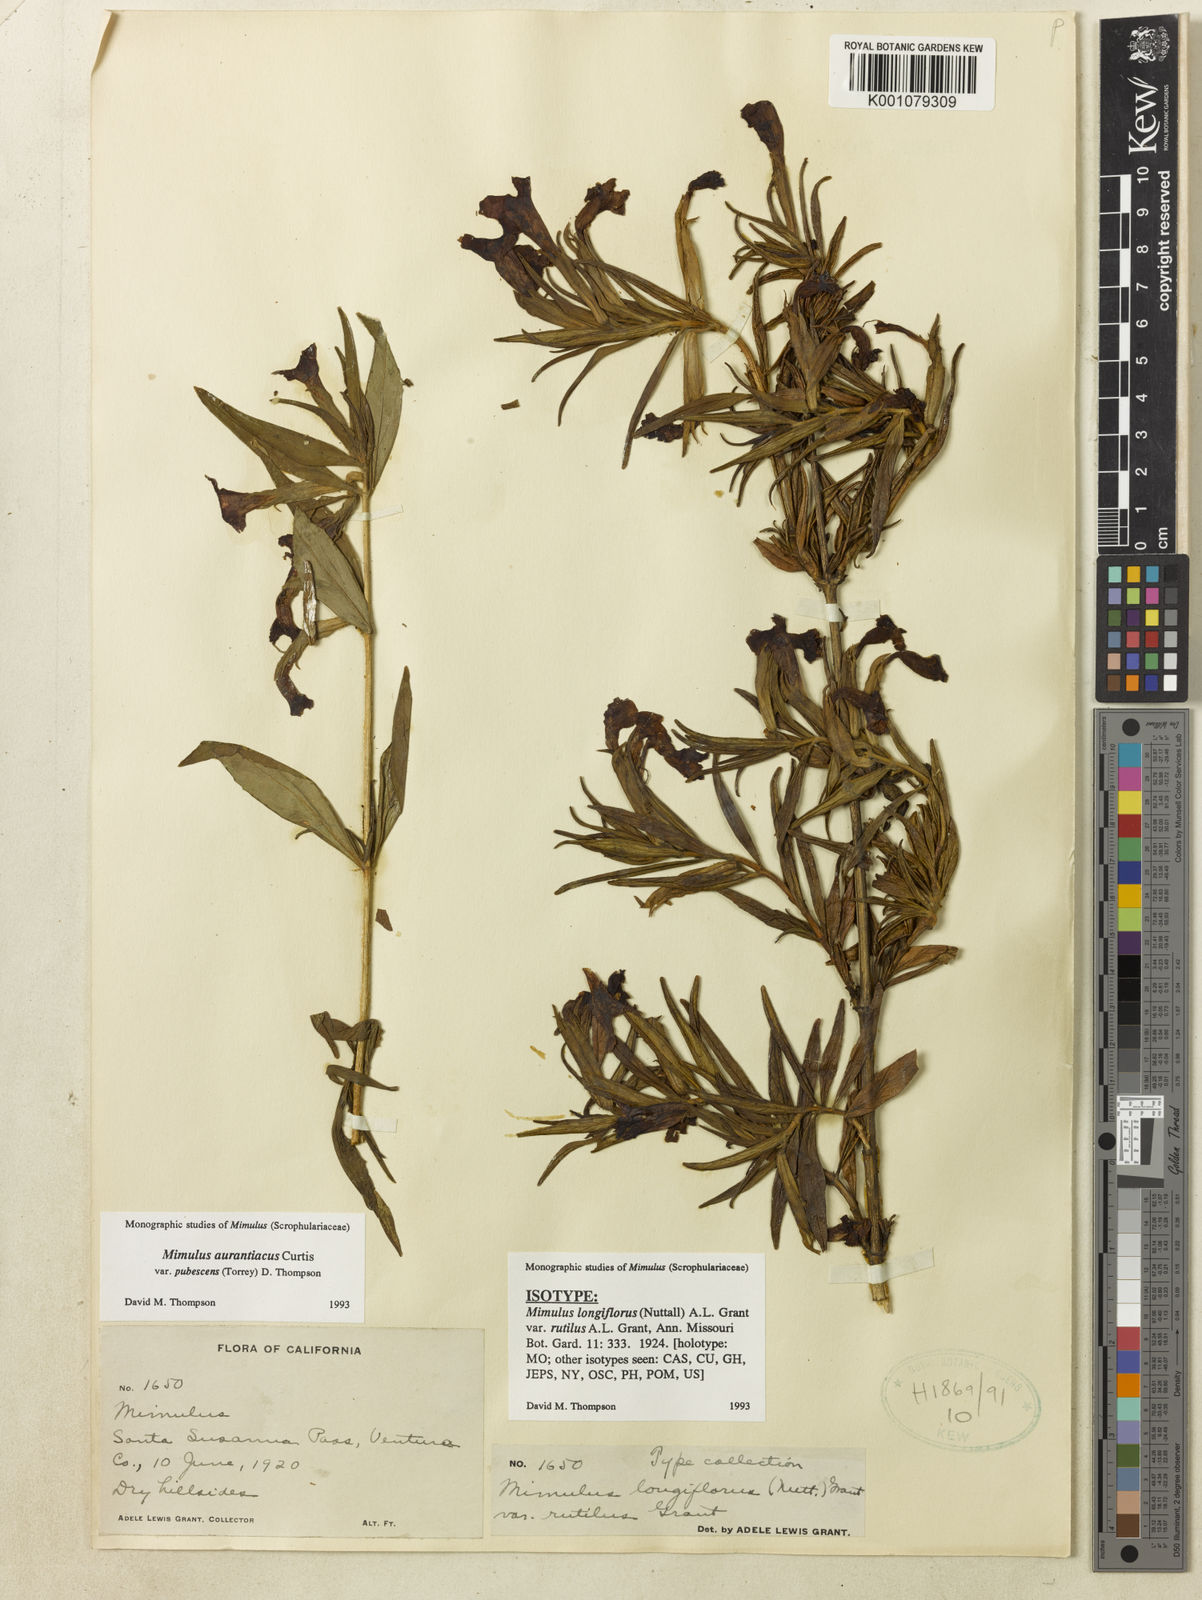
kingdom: Plantae
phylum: Tracheophyta
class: Magnoliopsida
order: Lamiales
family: Phrymaceae
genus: Diplacus
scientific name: Diplacus longiflorus
